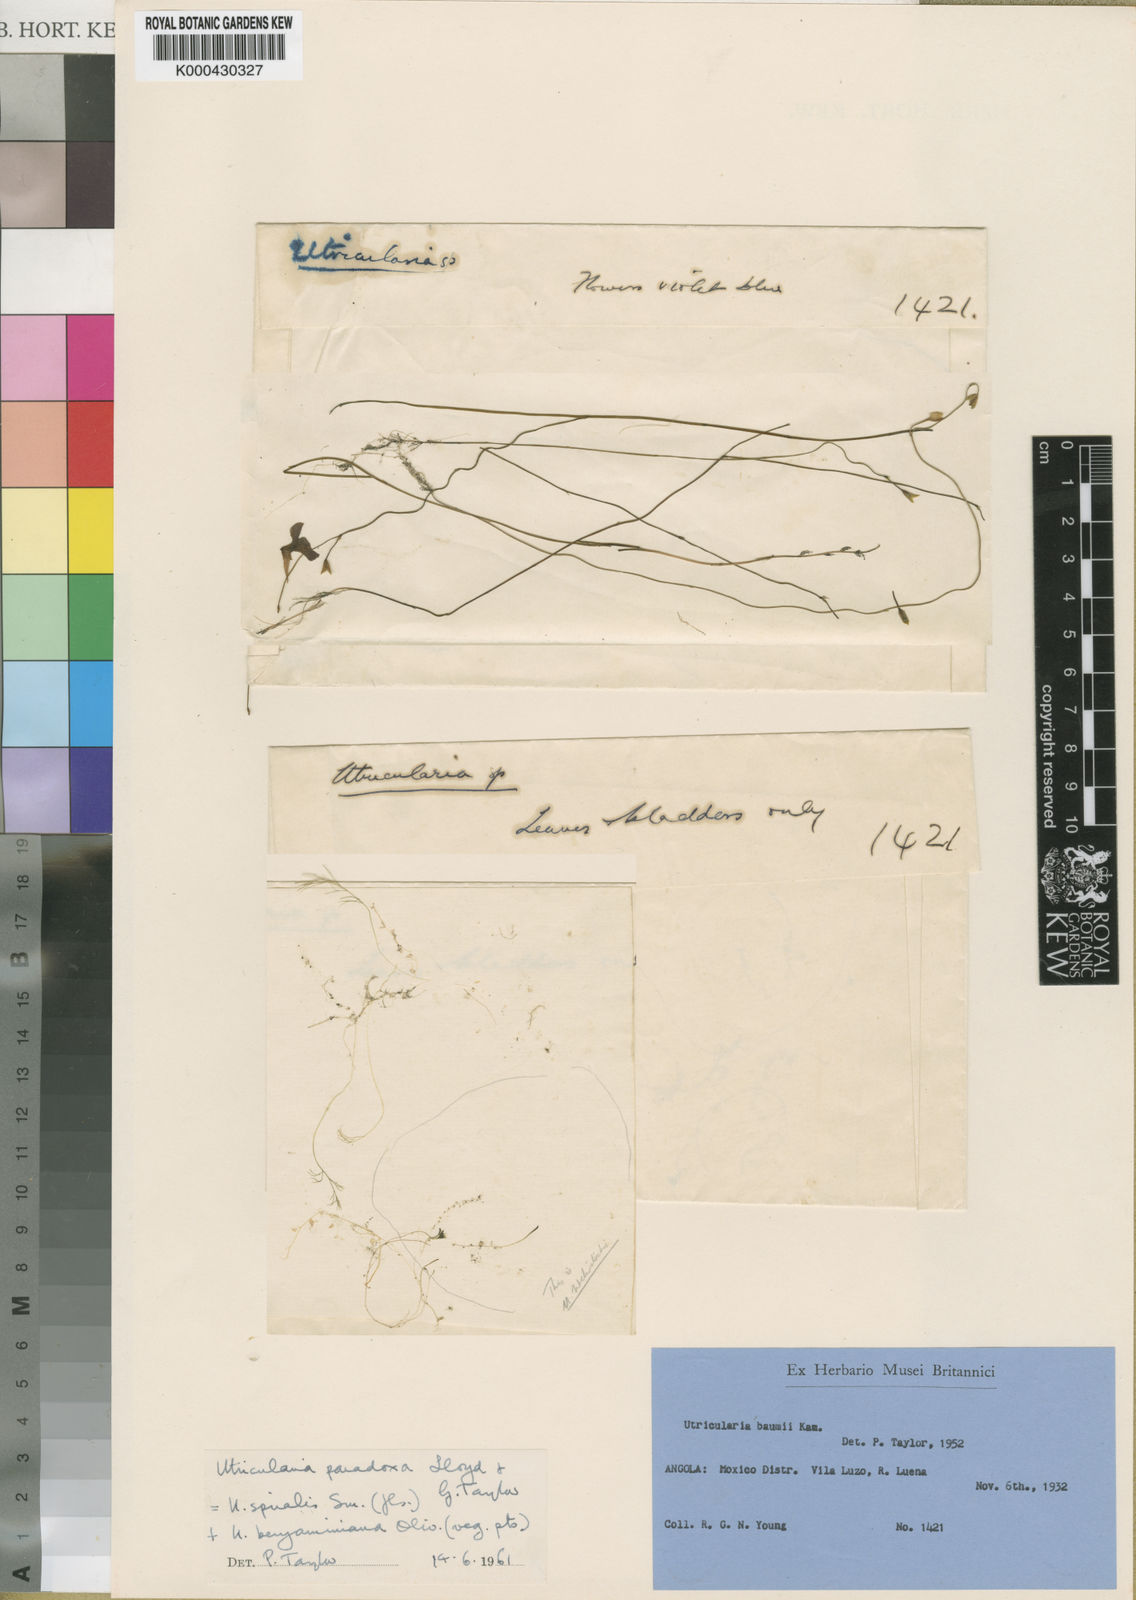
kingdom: Plantae
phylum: Tracheophyta
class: Magnoliopsida
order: Lamiales
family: Lentibulariaceae
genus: Utricularia
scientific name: Utricularia benjaminiana
